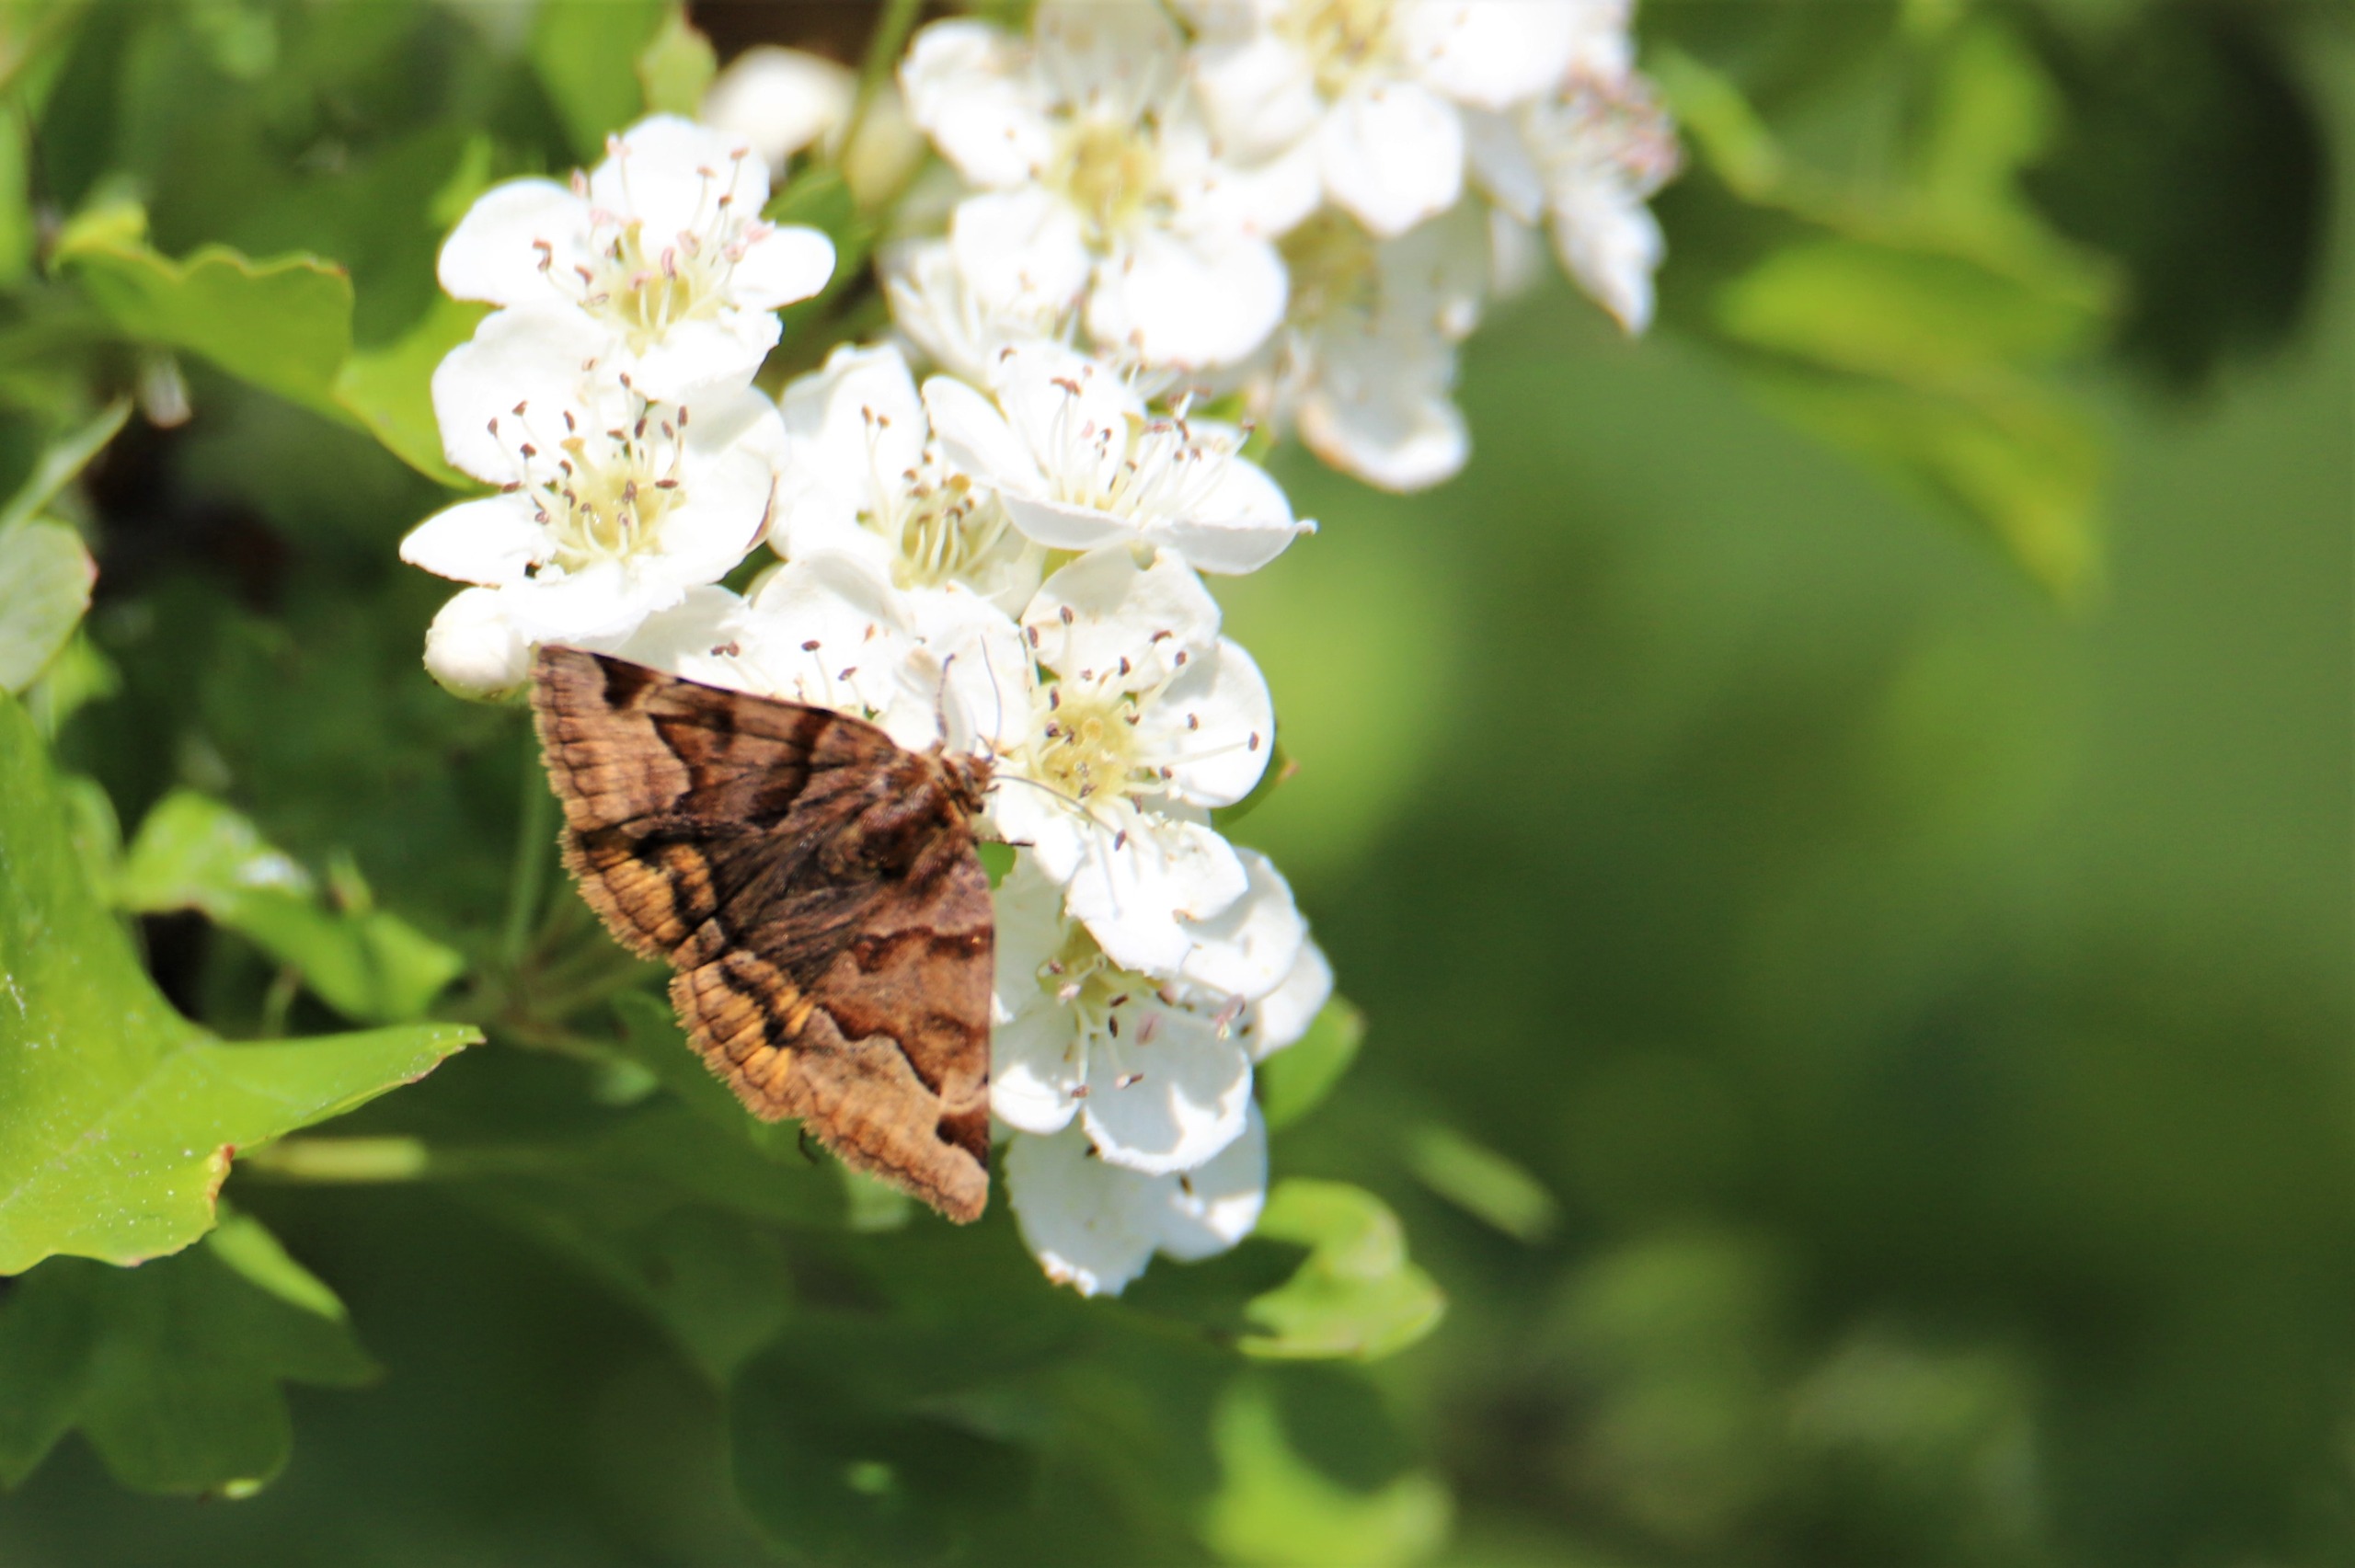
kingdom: Animalia
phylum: Arthropoda
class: Insecta
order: Lepidoptera
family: Erebidae
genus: Euclidia
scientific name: Euclidia glyphica
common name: Brun kløverugle
